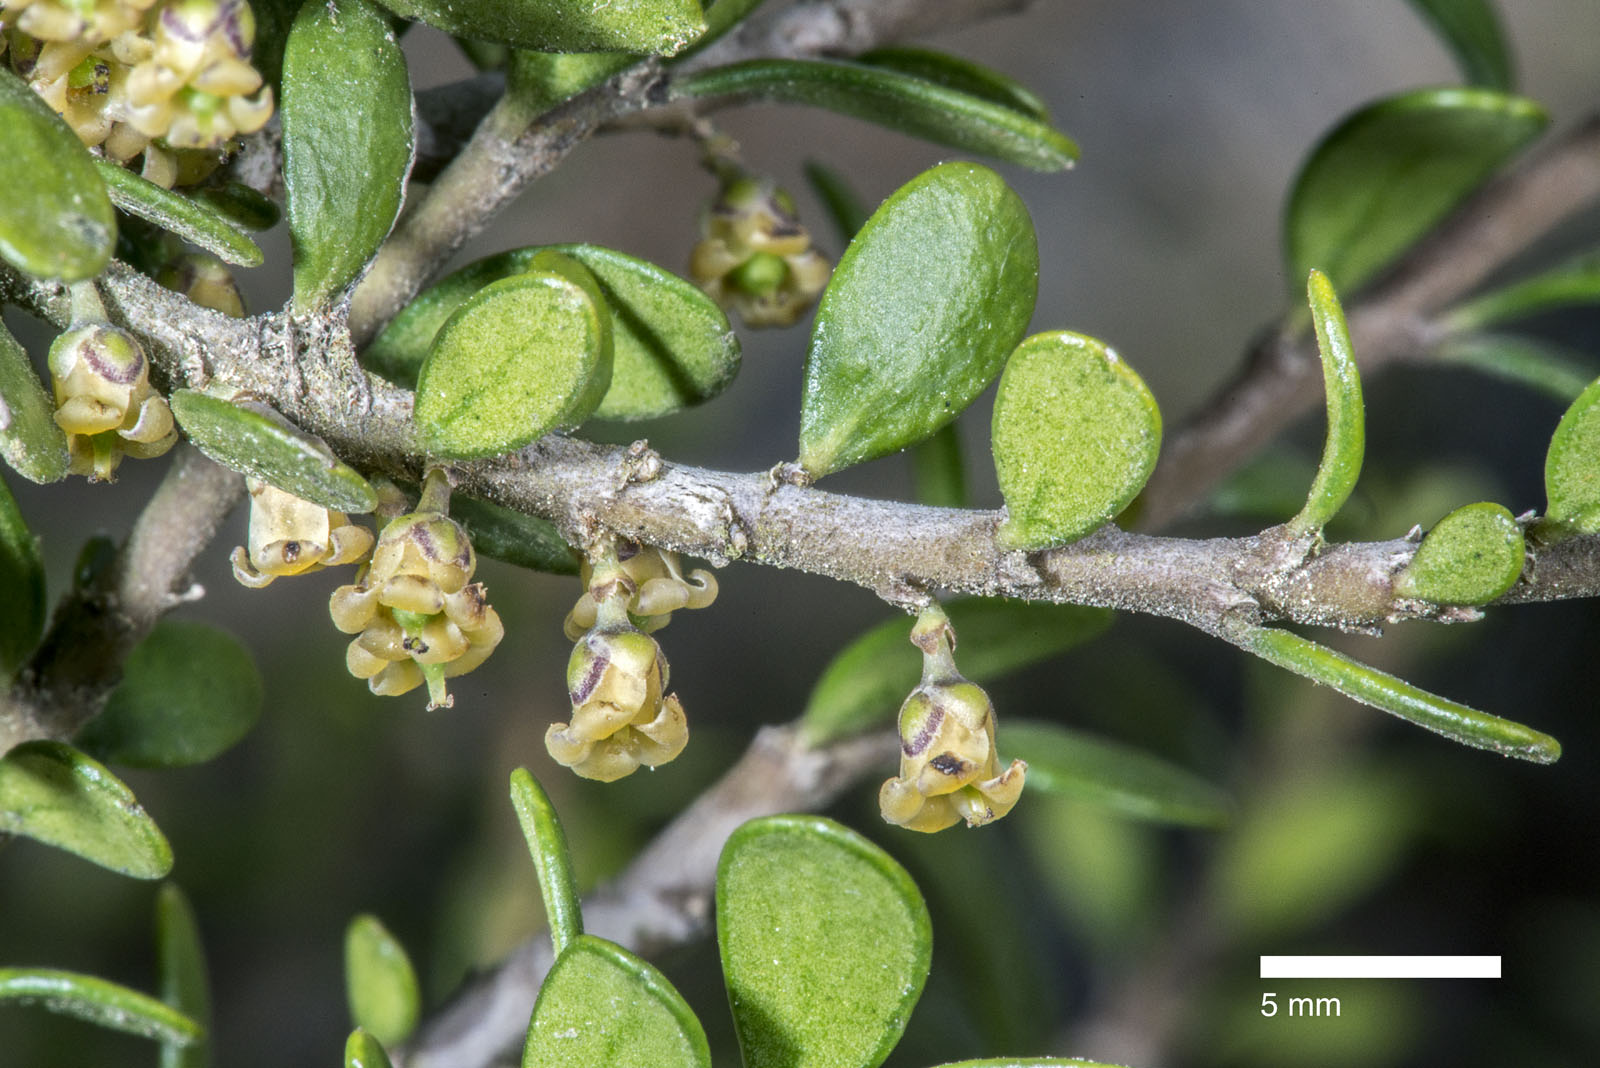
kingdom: Plantae
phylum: Tracheophyta
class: Magnoliopsida
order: Malpighiales
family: Violaceae
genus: Melicytus
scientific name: Melicytus alpinus
